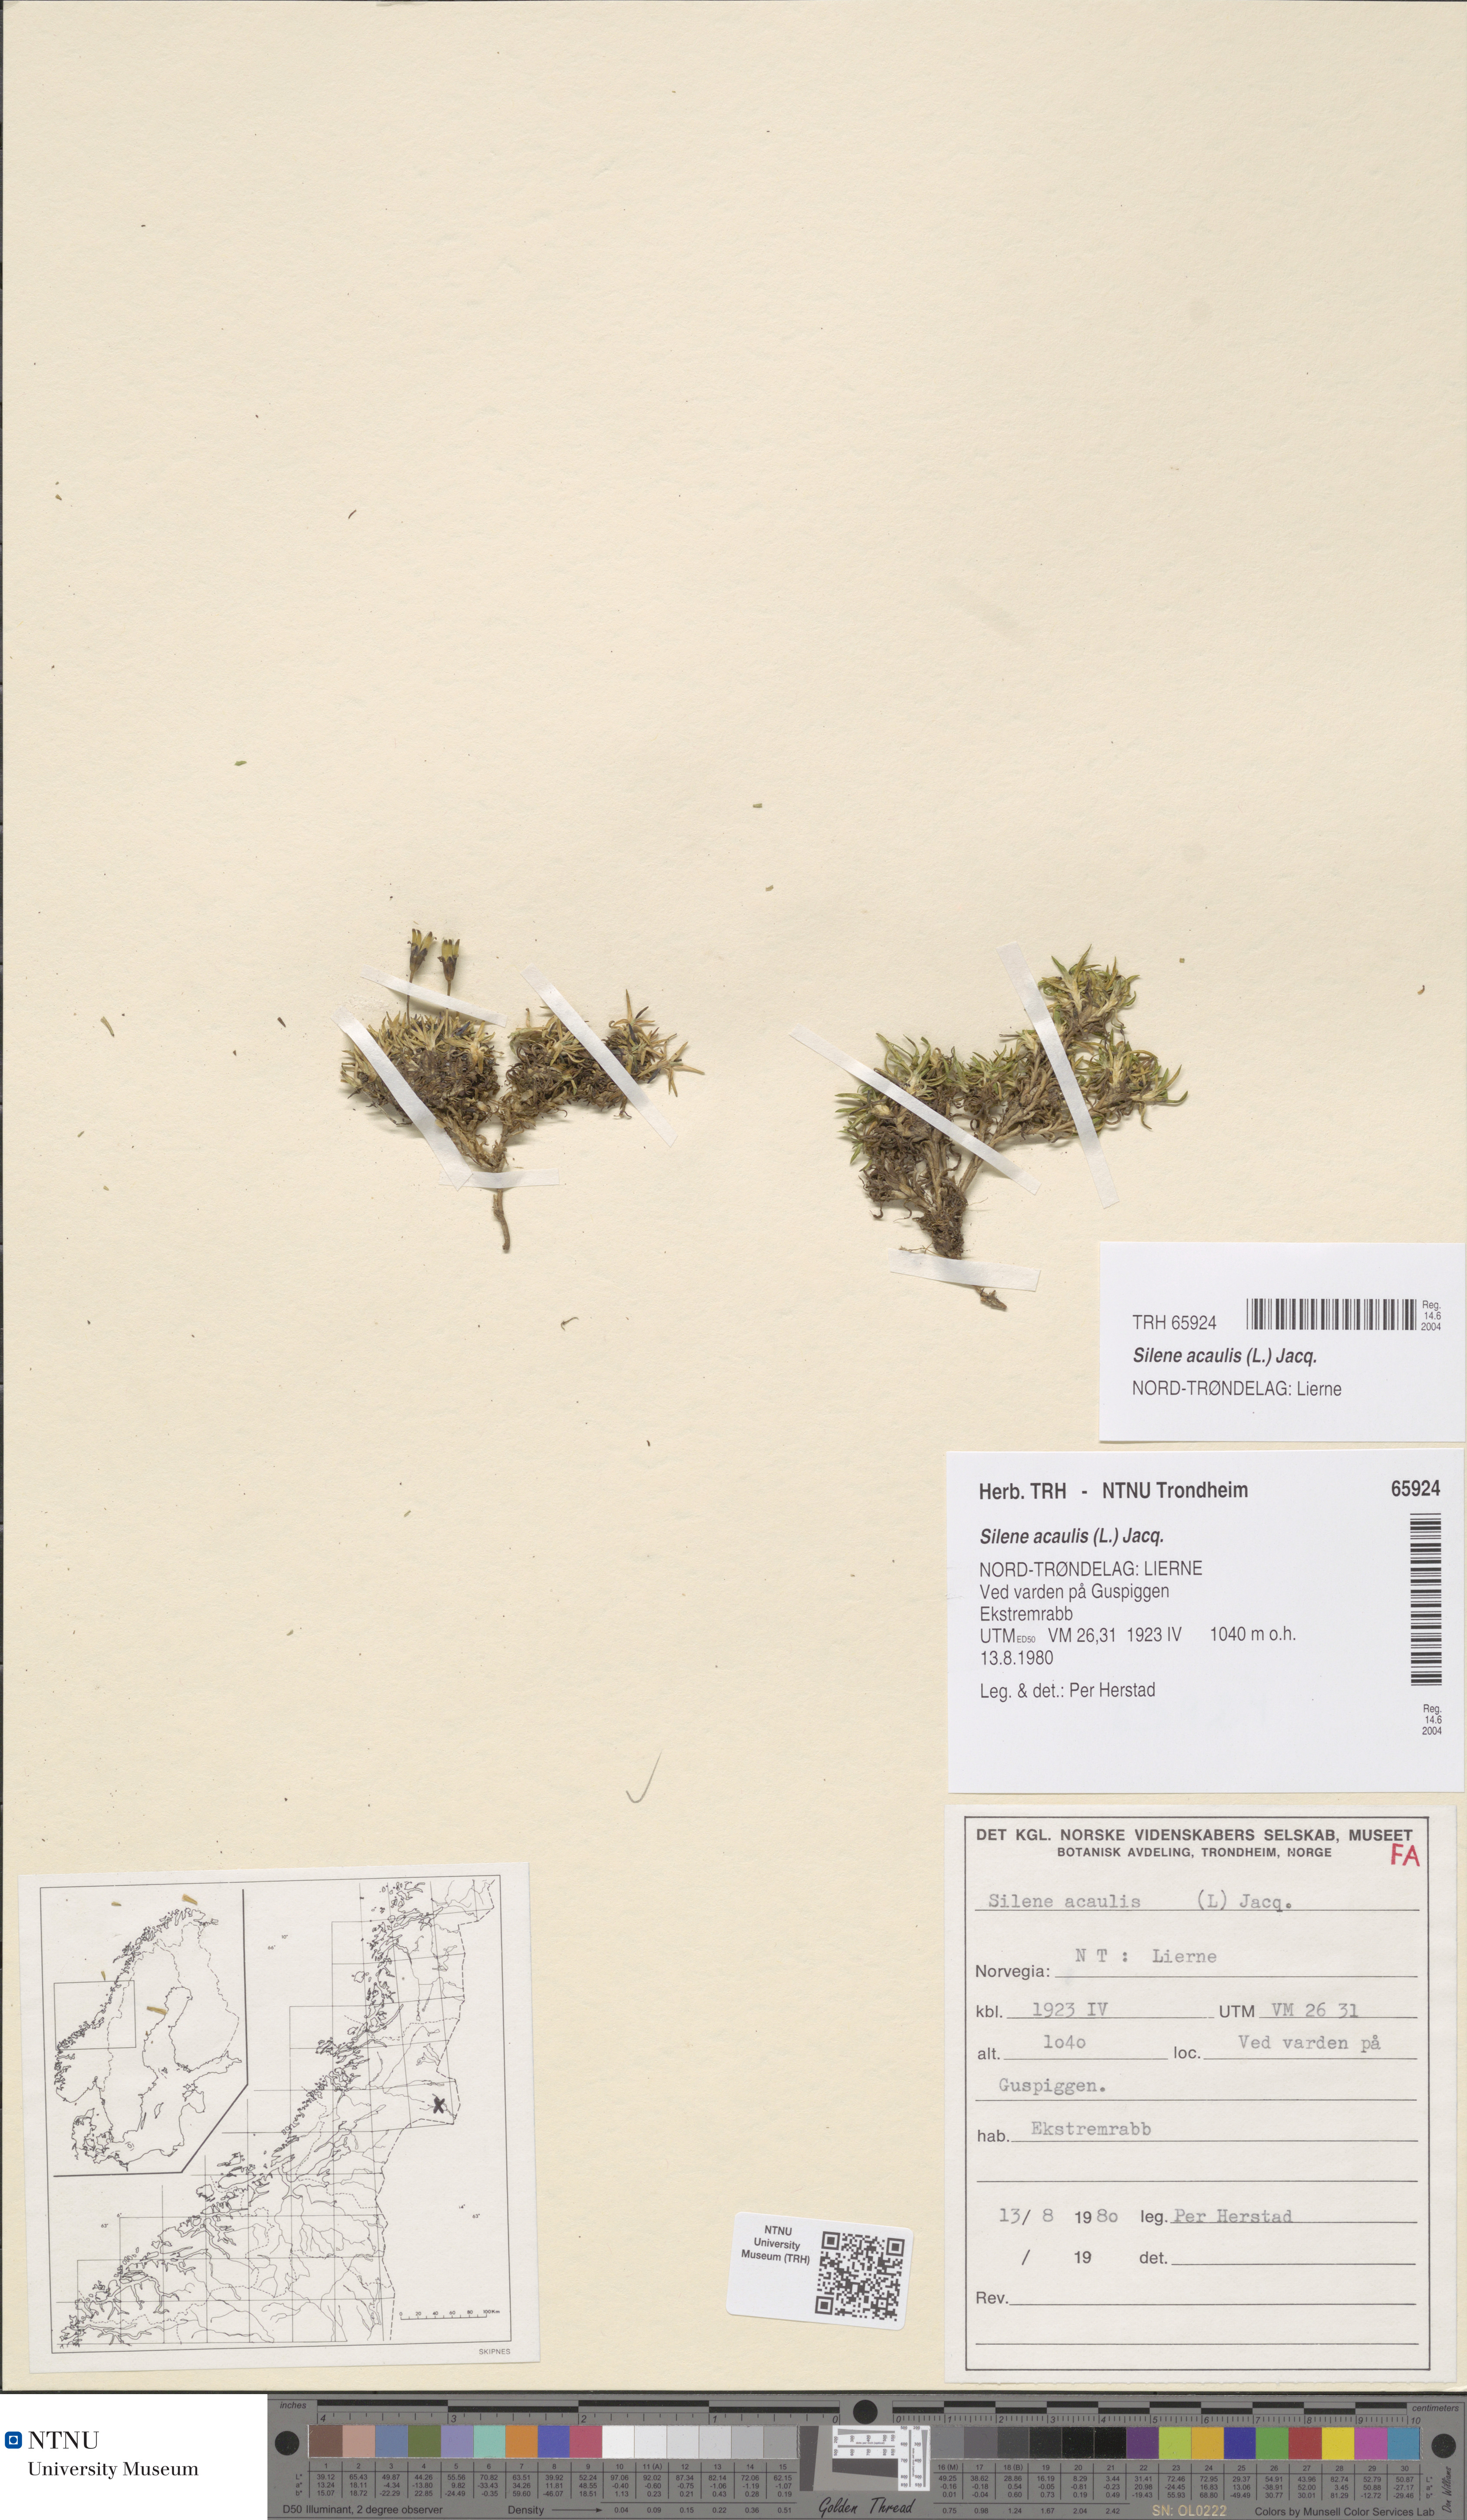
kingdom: Plantae
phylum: Tracheophyta
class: Magnoliopsida
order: Caryophyllales
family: Caryophyllaceae
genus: Silene
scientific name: Silene acaulis
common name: Moss campion
